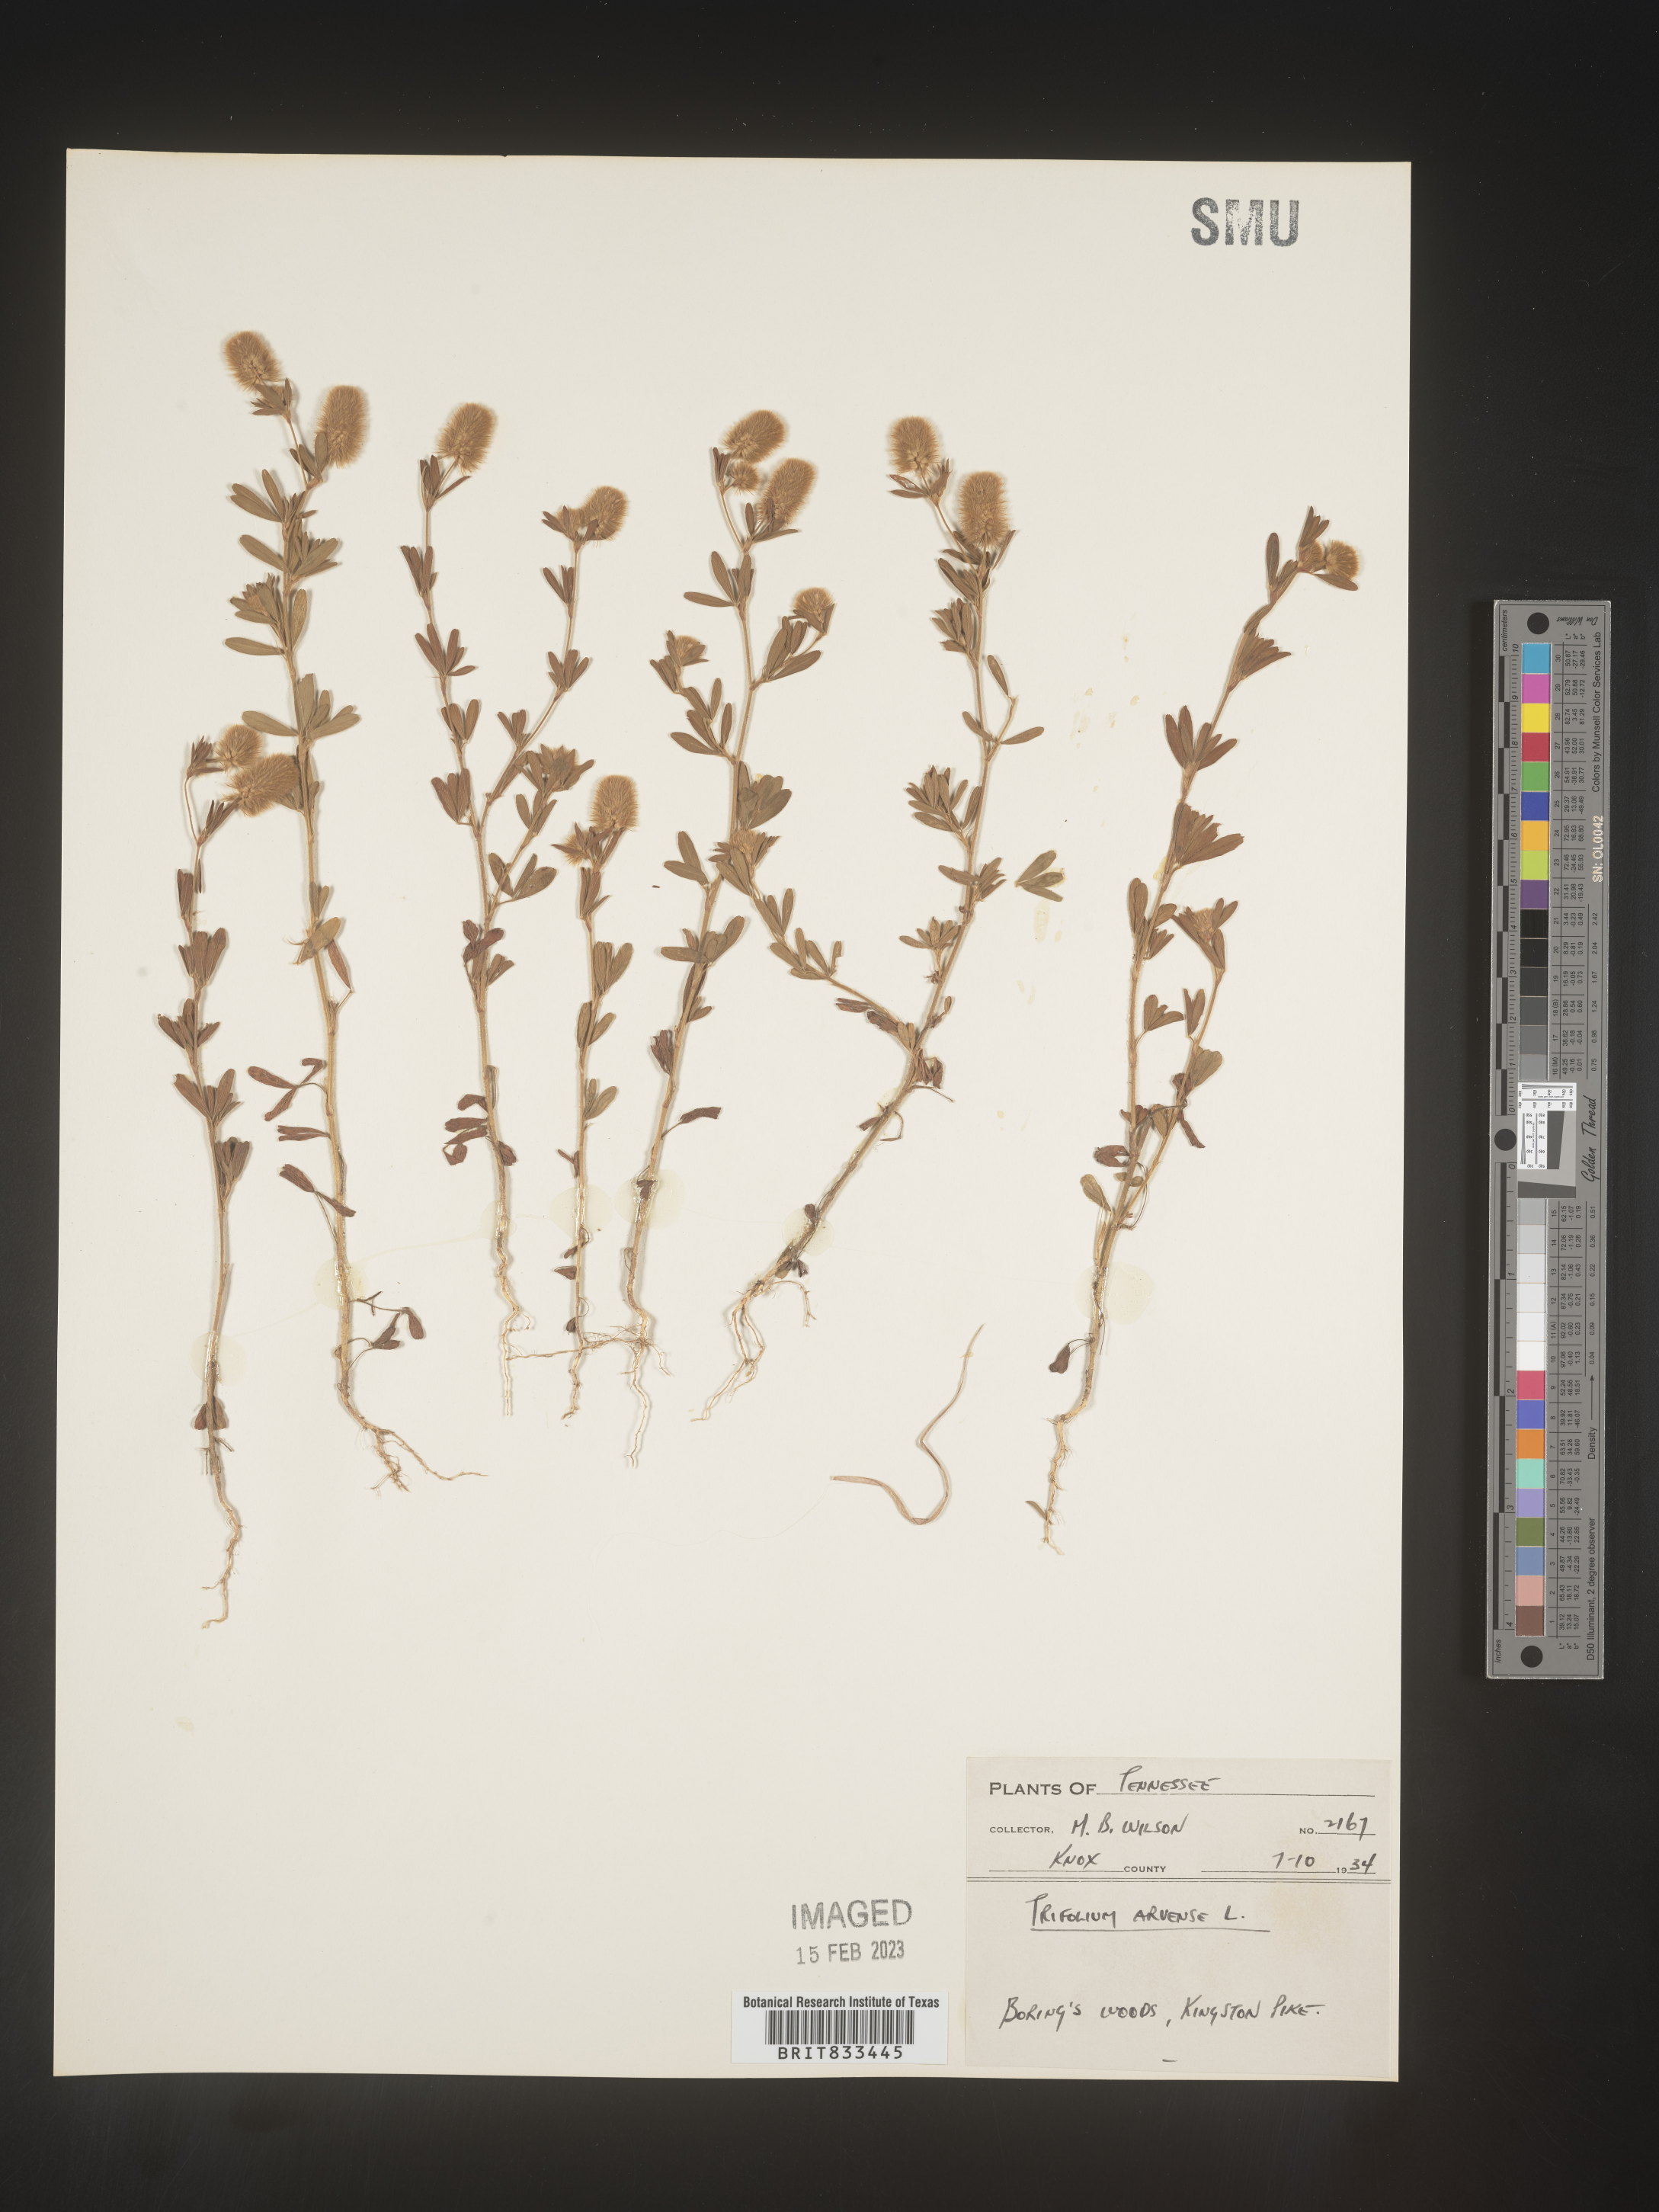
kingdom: Plantae
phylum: Tracheophyta
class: Magnoliopsida
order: Fabales
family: Fabaceae
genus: Trifolium
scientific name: Trifolium arvense
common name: Hare's-foot clover
